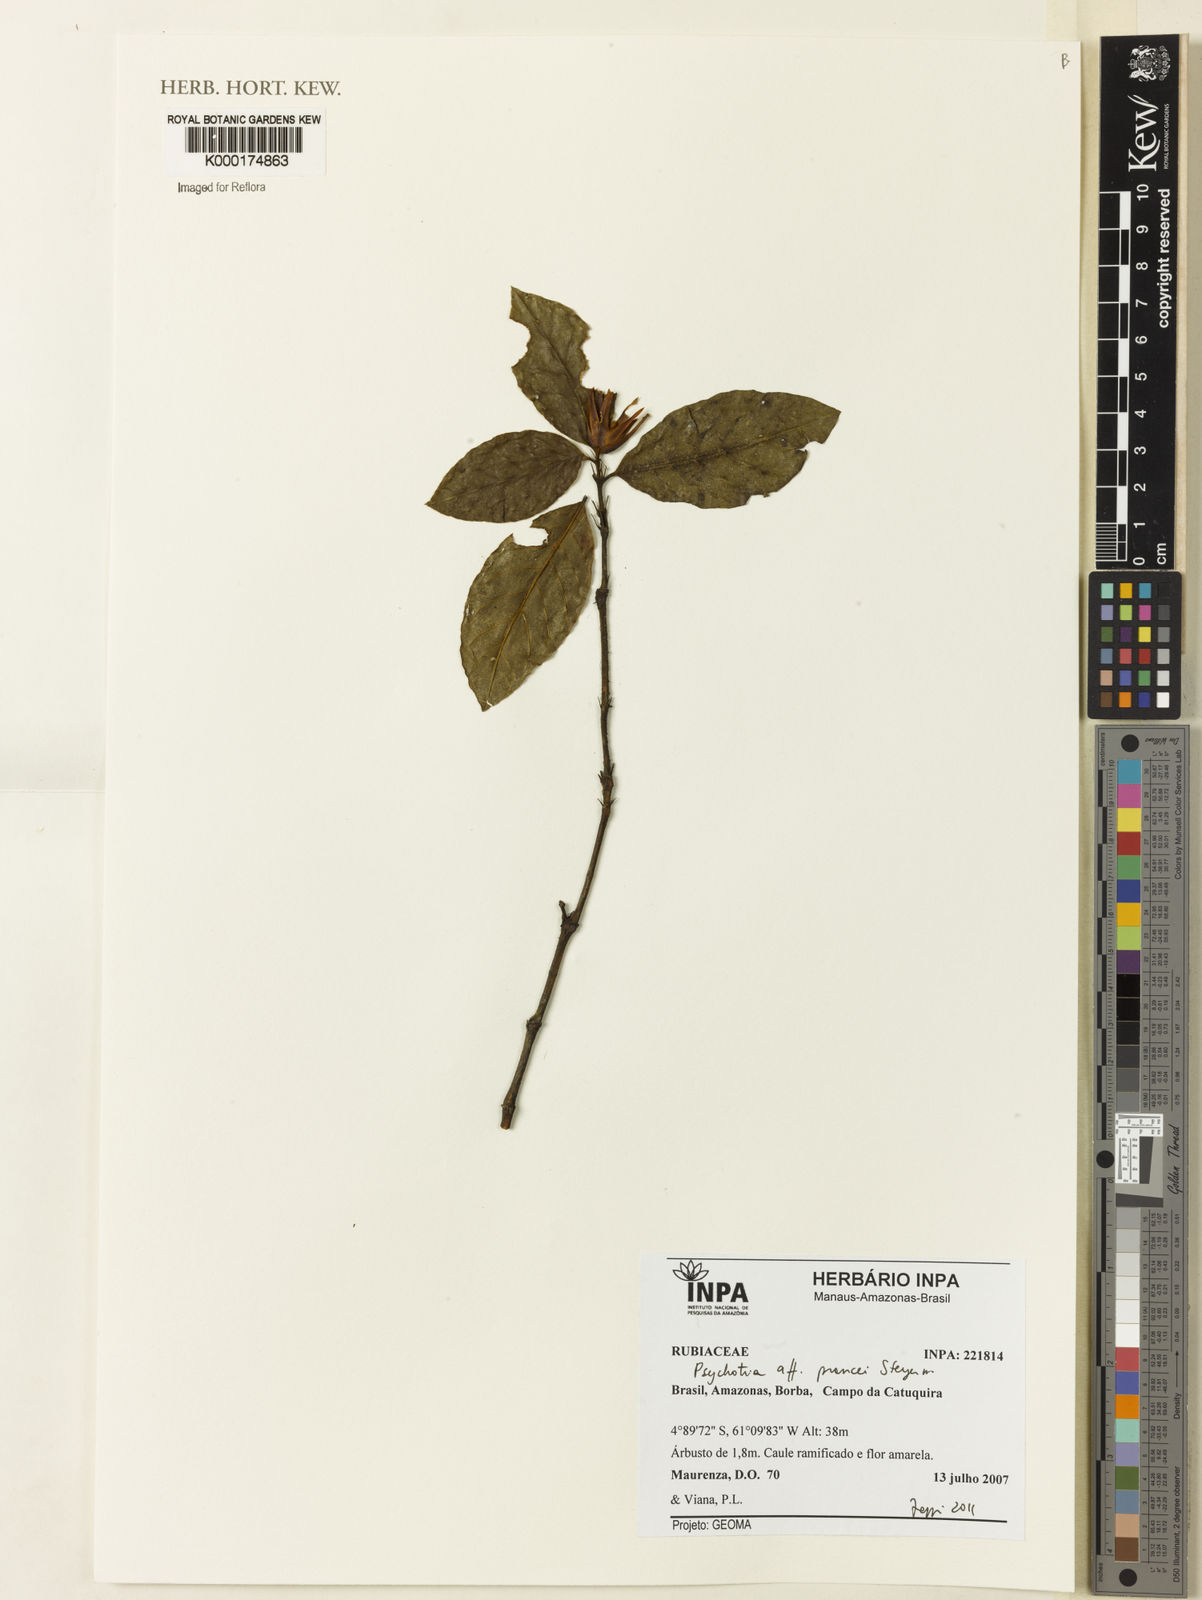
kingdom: Plantae
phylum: Tracheophyta
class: Magnoliopsida
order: Gentianales
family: Rubiaceae
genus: Palicourea
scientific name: Palicourea prancei
